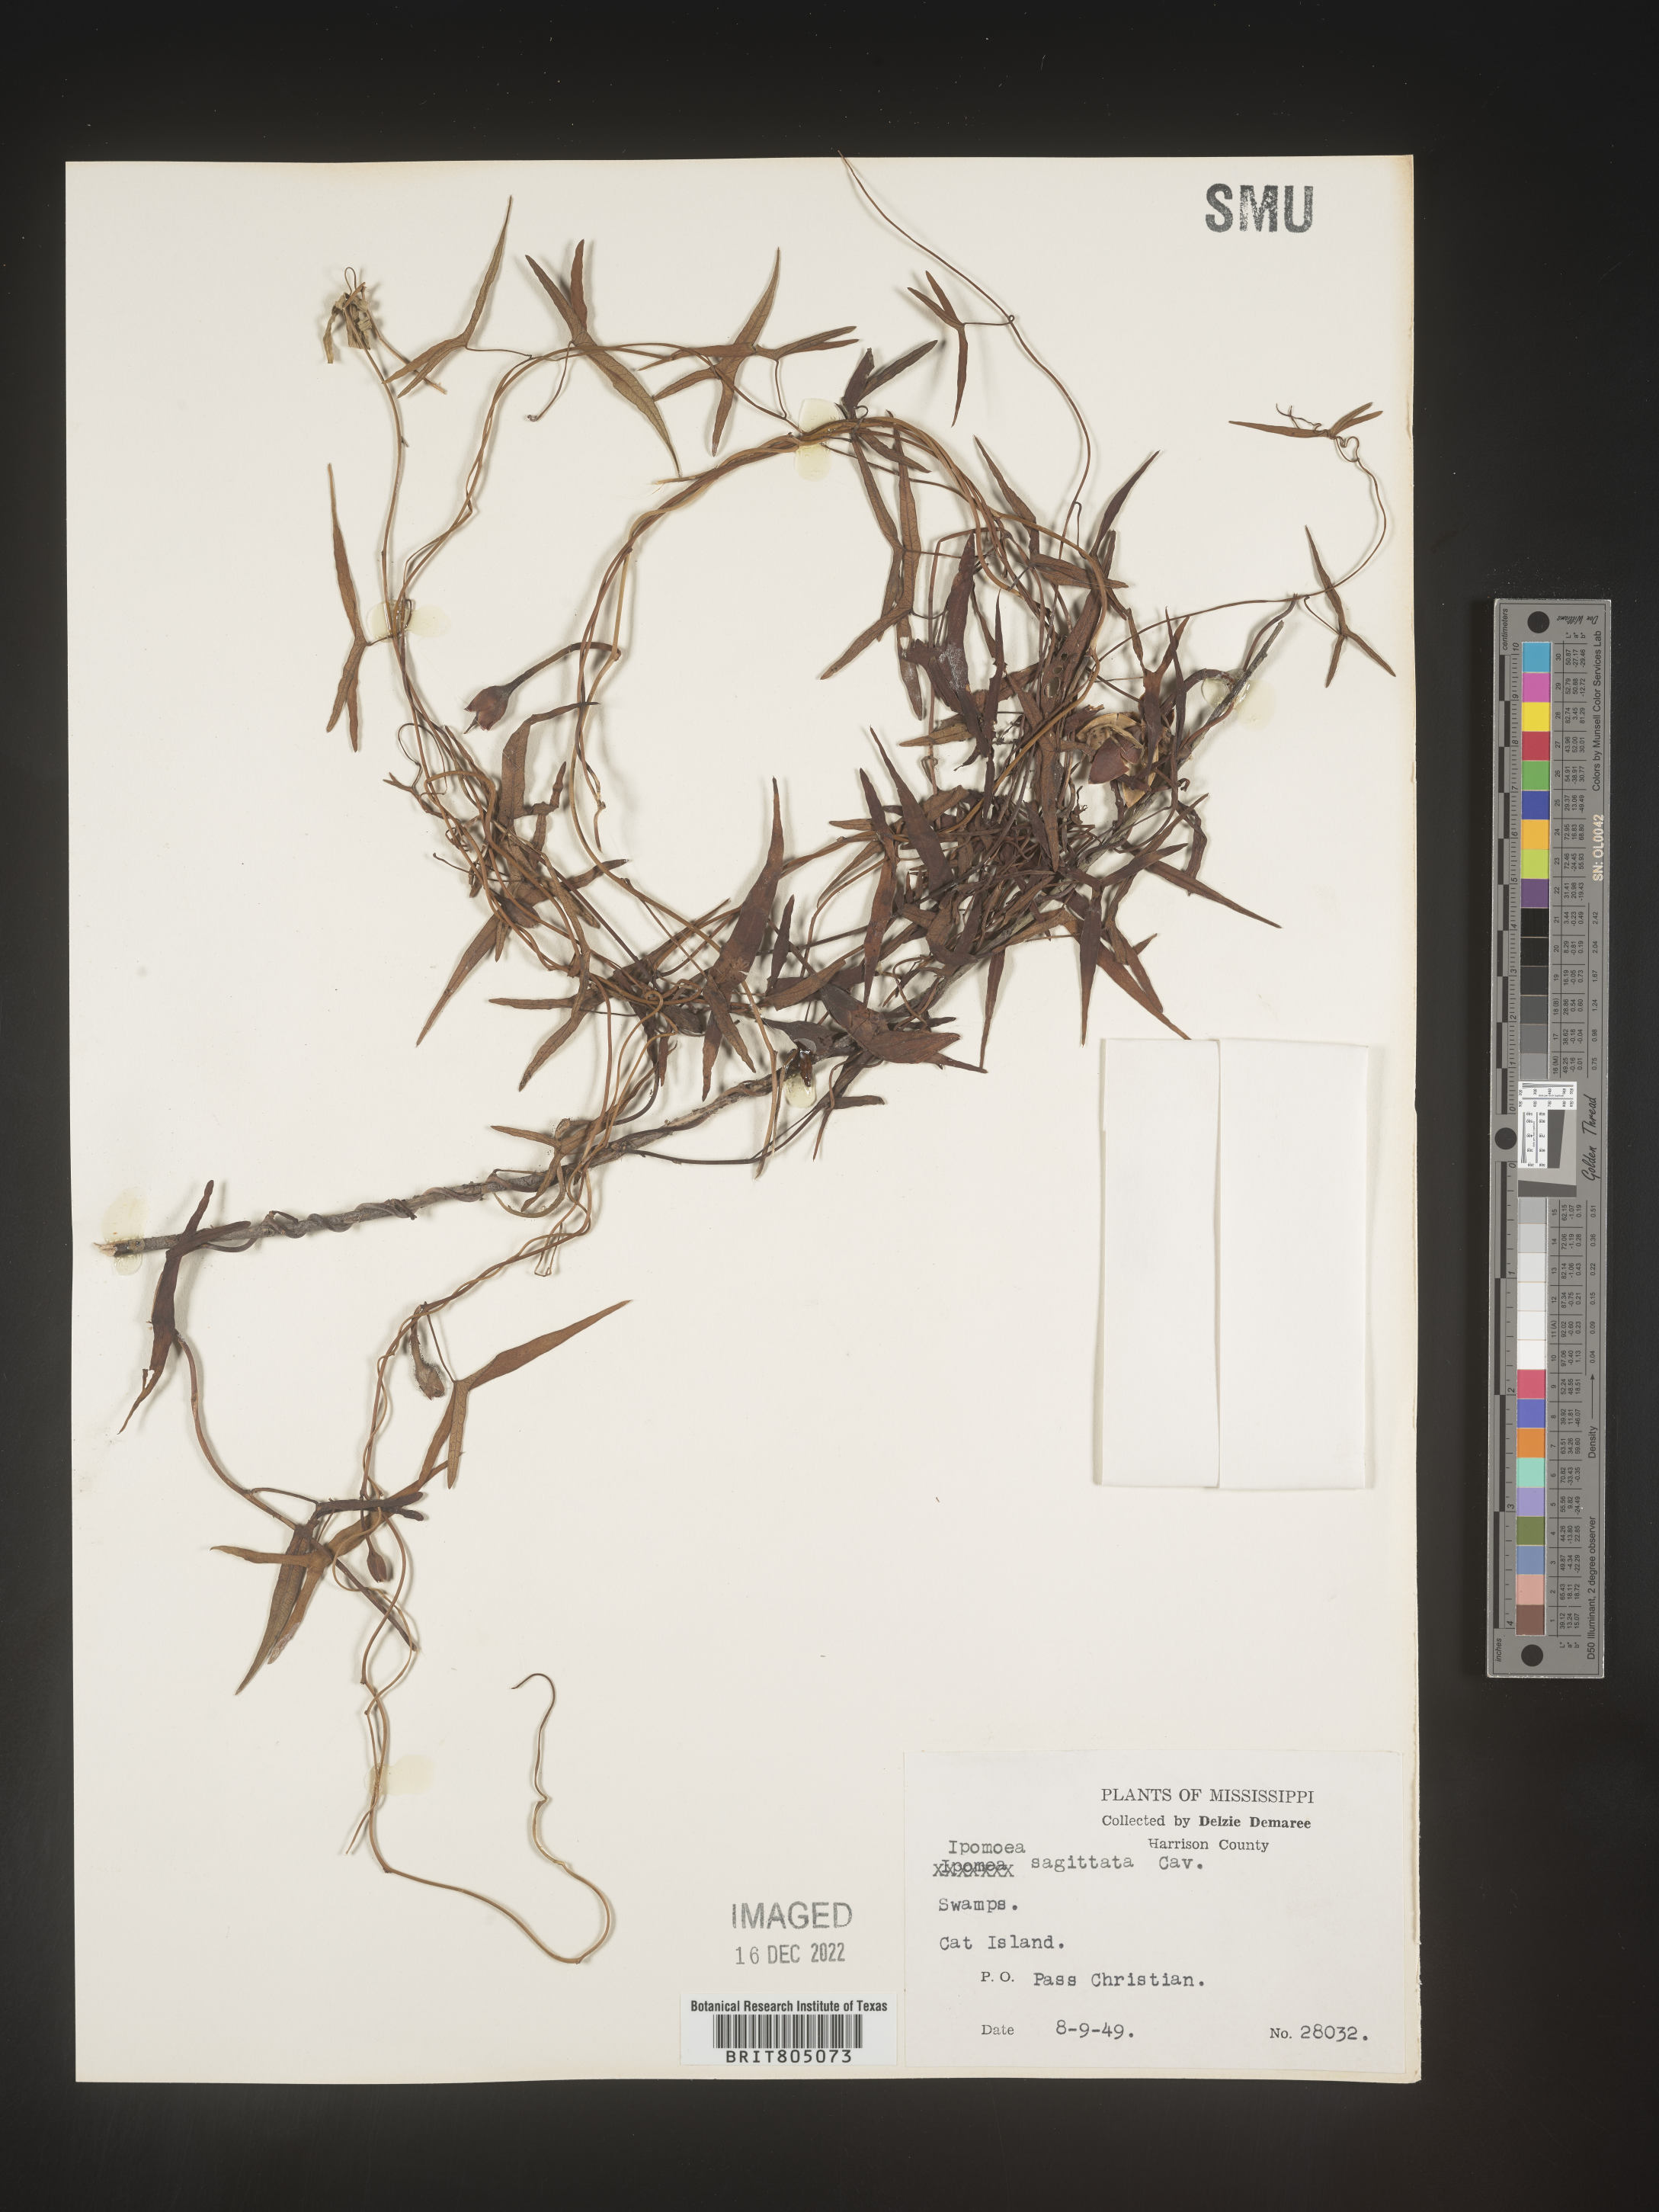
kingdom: Plantae
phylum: Tracheophyta
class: Magnoliopsida
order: Solanales
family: Convolvulaceae
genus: Ipomoea
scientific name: Ipomoea sinensis
